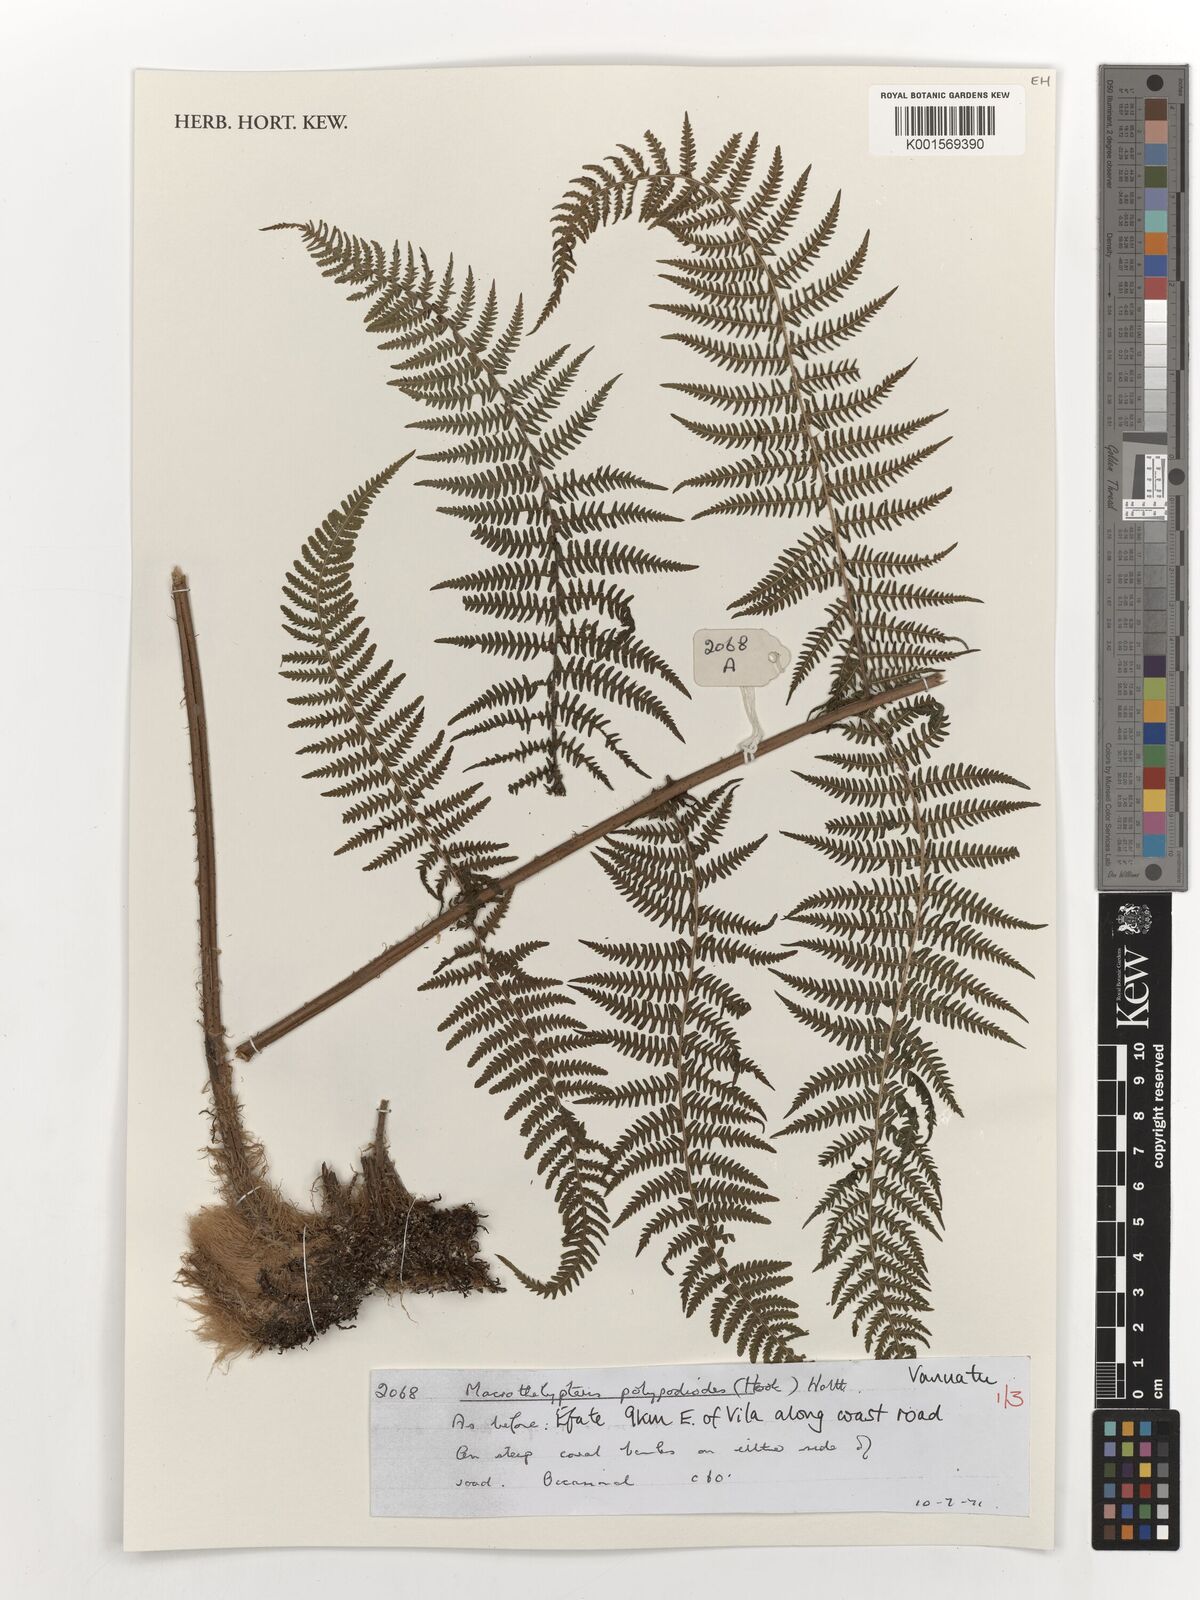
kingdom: Plantae
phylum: Tracheophyta
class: Polypodiopsida
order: Polypodiales
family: Thelypteridaceae
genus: Macrothelypteris
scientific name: Macrothelypteris polypodioides
